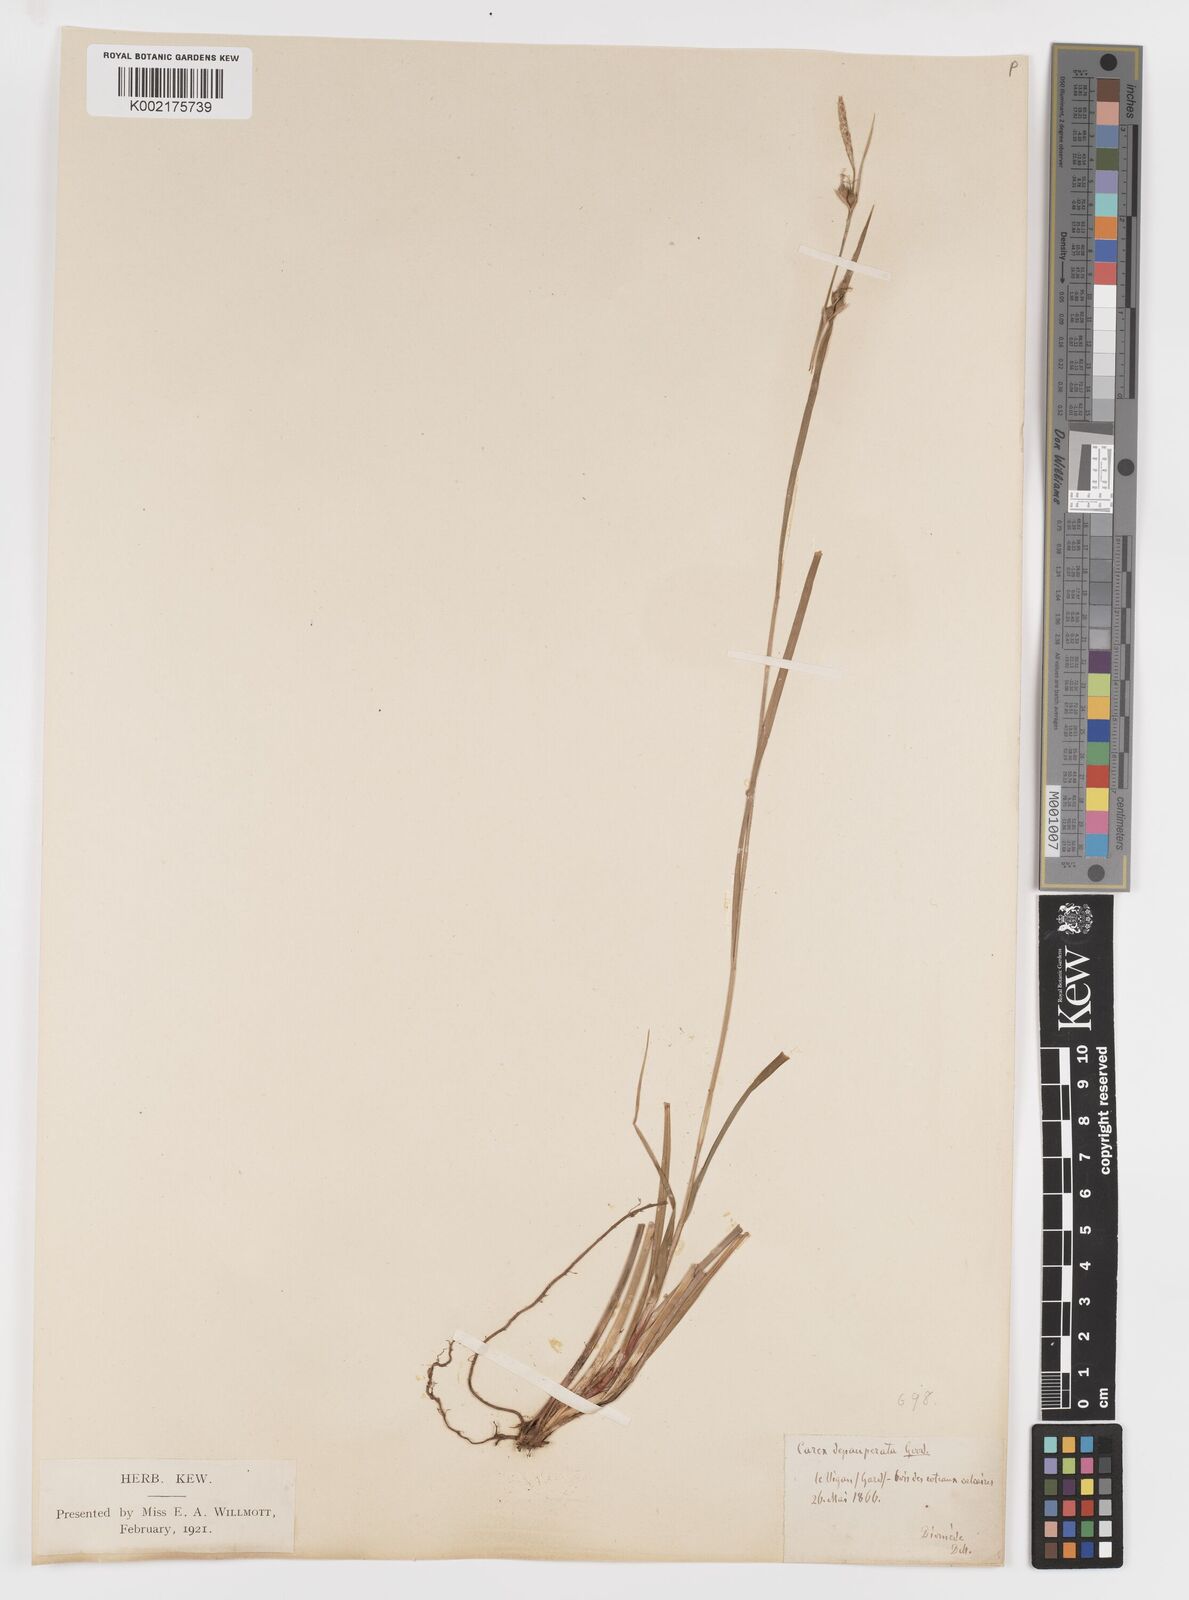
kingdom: Plantae
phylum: Tracheophyta
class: Liliopsida
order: Poales
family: Cyperaceae
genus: Carex
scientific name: Carex
